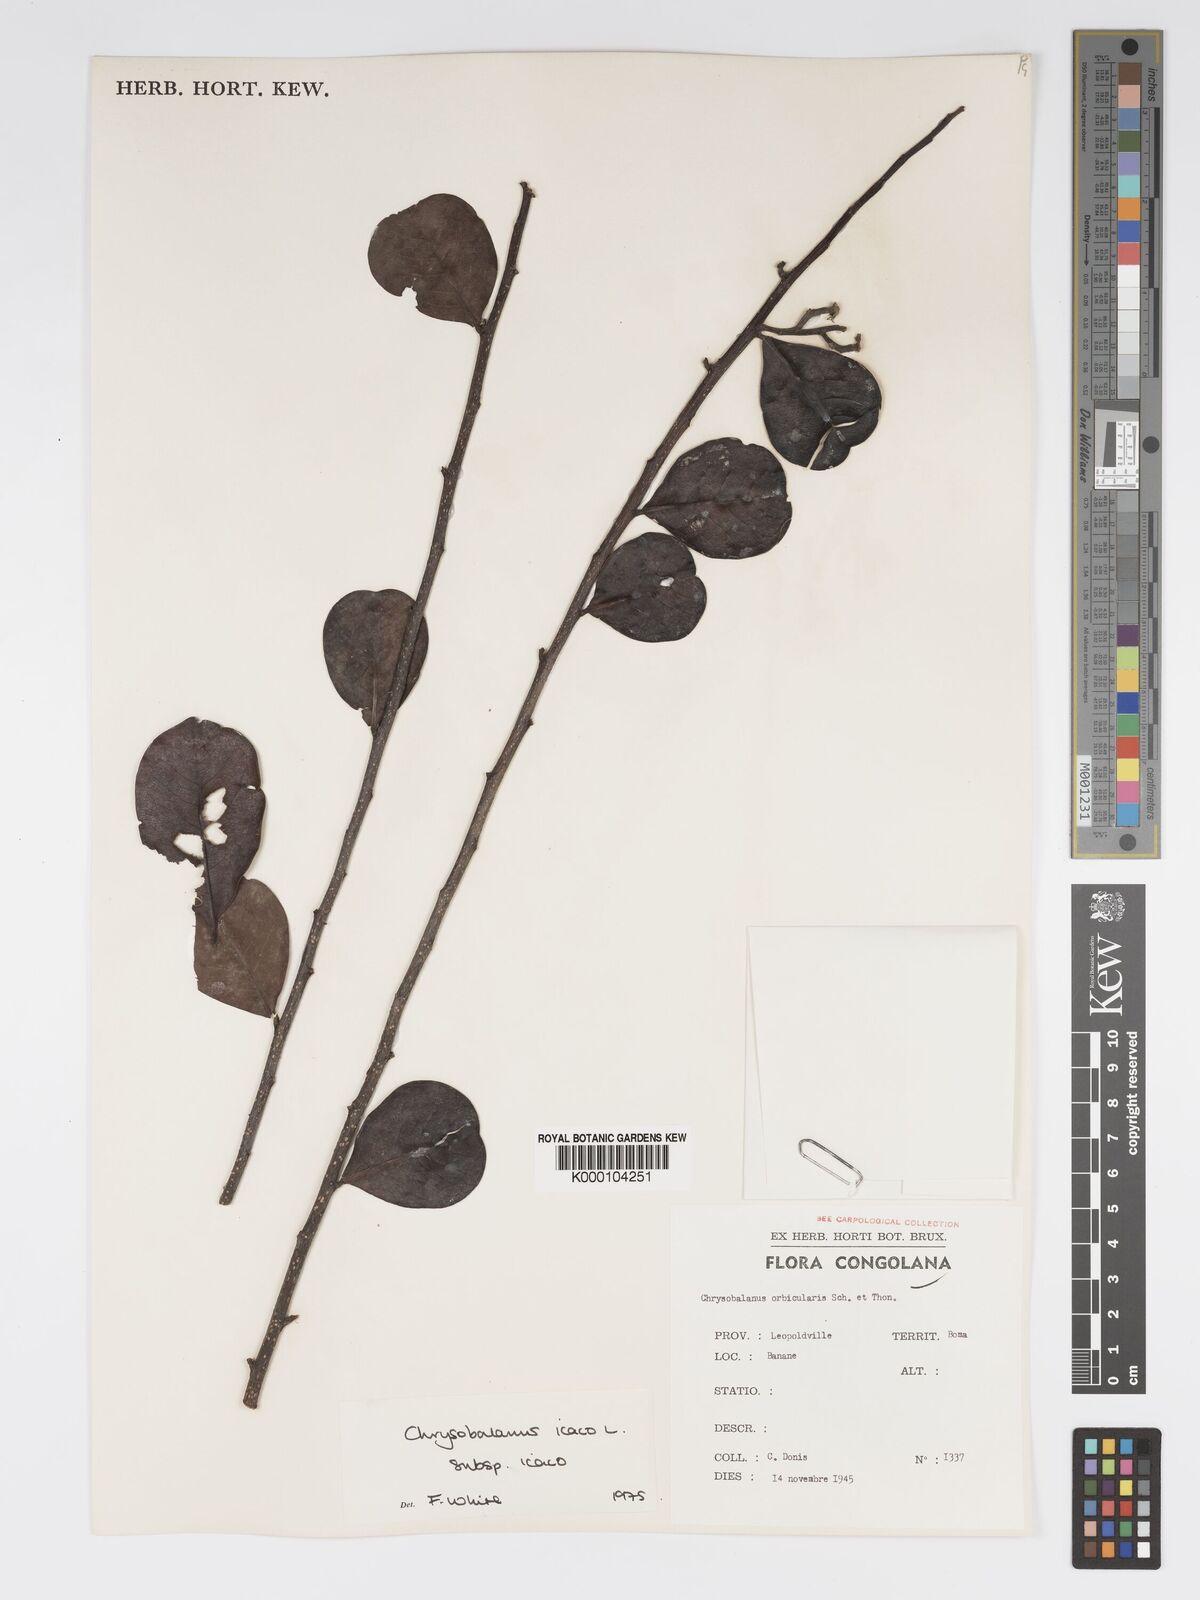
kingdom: Plantae
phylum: Tracheophyta
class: Magnoliopsida
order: Malpighiales
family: Chrysobalanaceae
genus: Chrysobalanus
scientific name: Chrysobalanus icaco
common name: Coco plum
